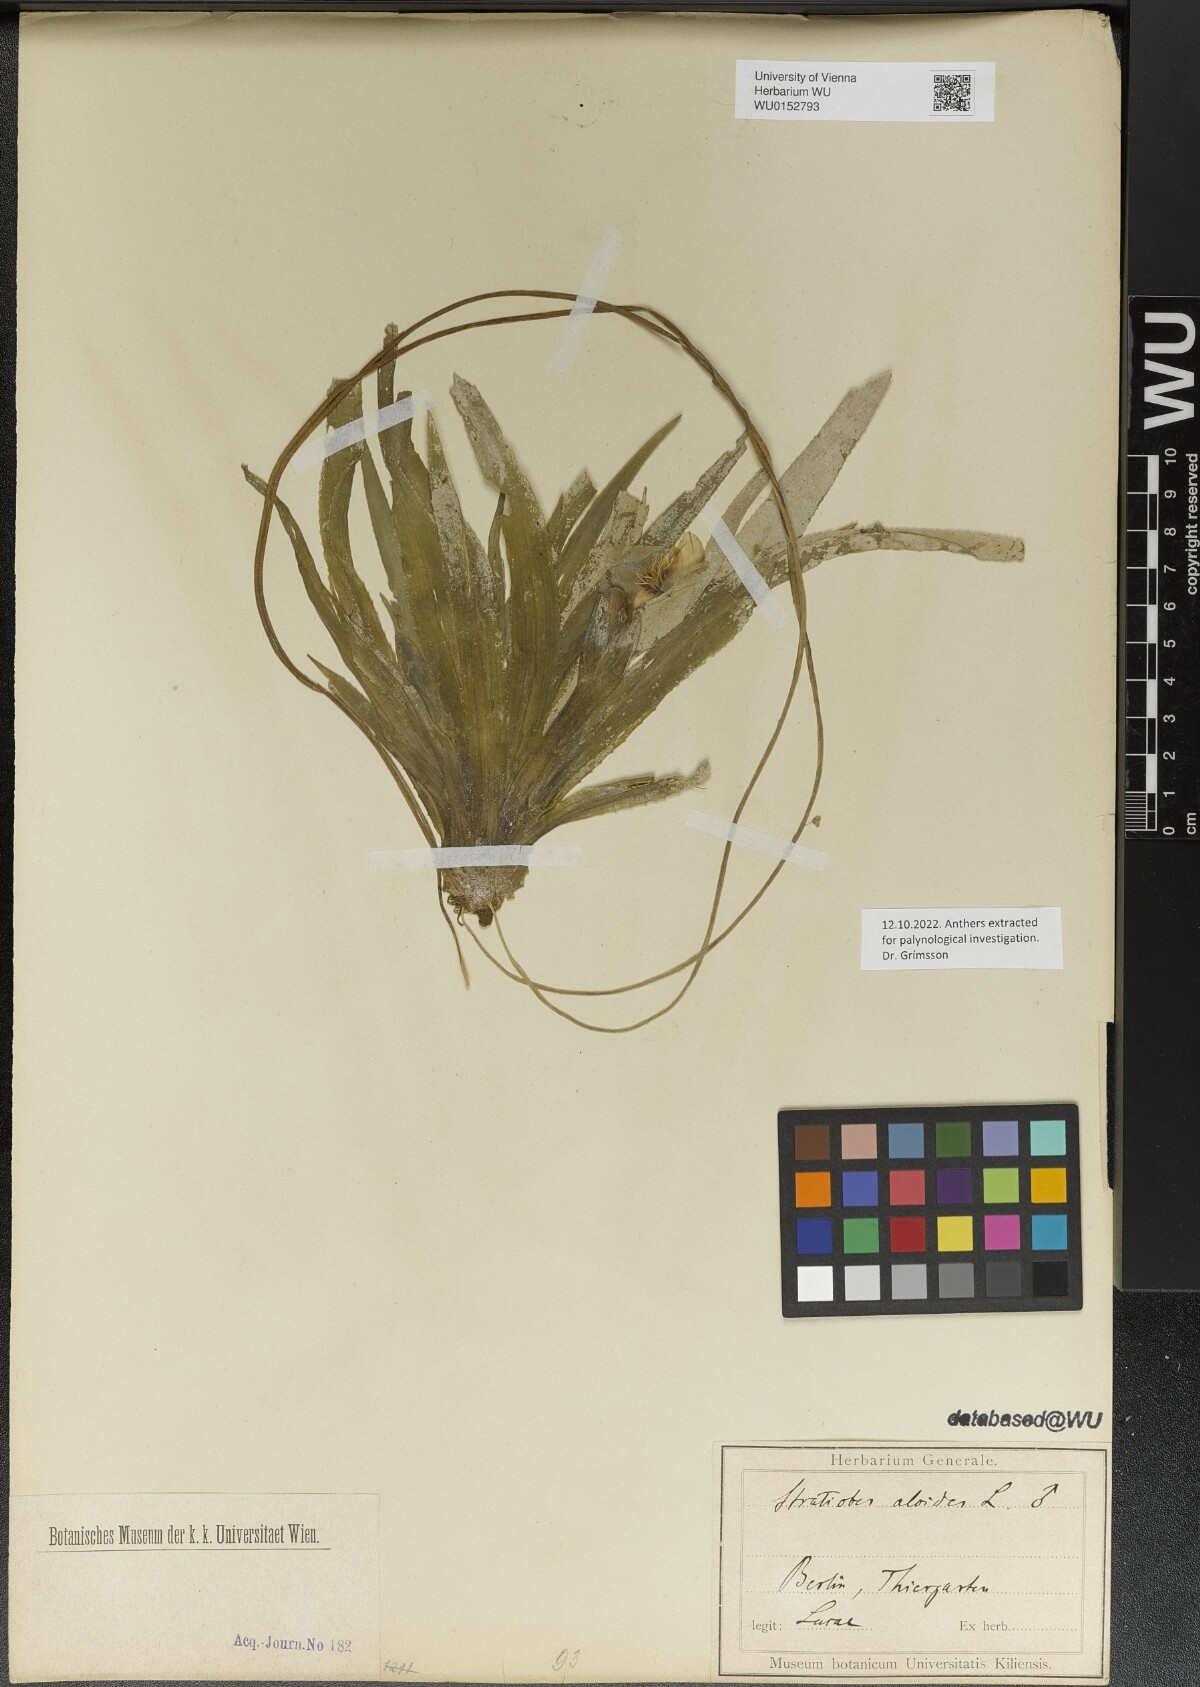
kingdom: Plantae
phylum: Tracheophyta
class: Liliopsida
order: Alismatales
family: Hydrocharitaceae
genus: Stratiotes
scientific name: Stratiotes aloides
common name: Water-soldier
